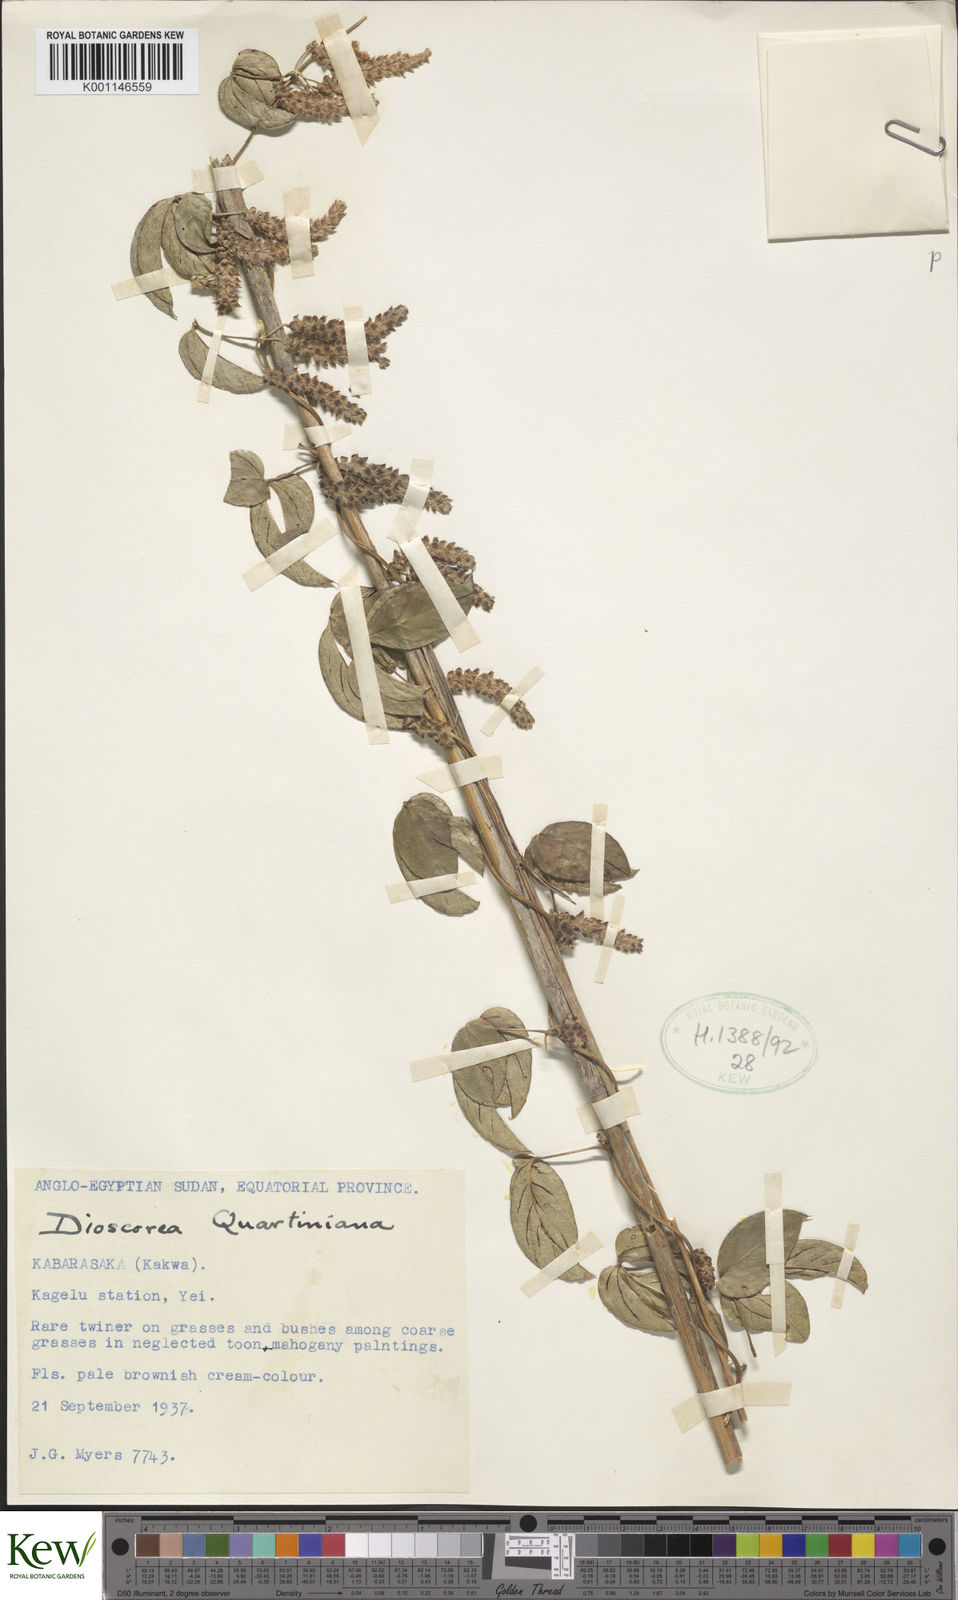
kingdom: Plantae
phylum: Tracheophyta
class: Liliopsida
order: Dioscoreales
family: Dioscoreaceae
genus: Dioscorea
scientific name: Dioscorea quartiniana
